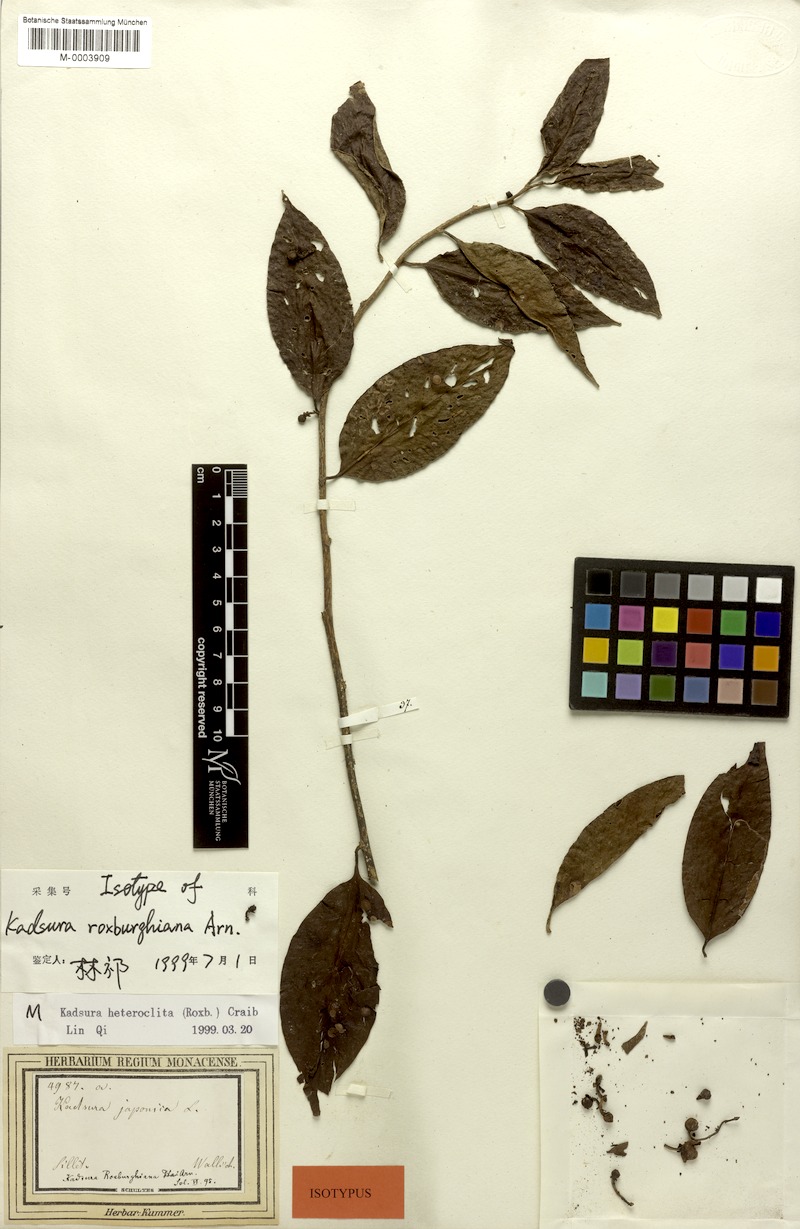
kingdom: Plantae
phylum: Tracheophyta
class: Magnoliopsida
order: Austrobaileyales
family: Schisandraceae
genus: Kadsura
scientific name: Kadsura heteroclita
